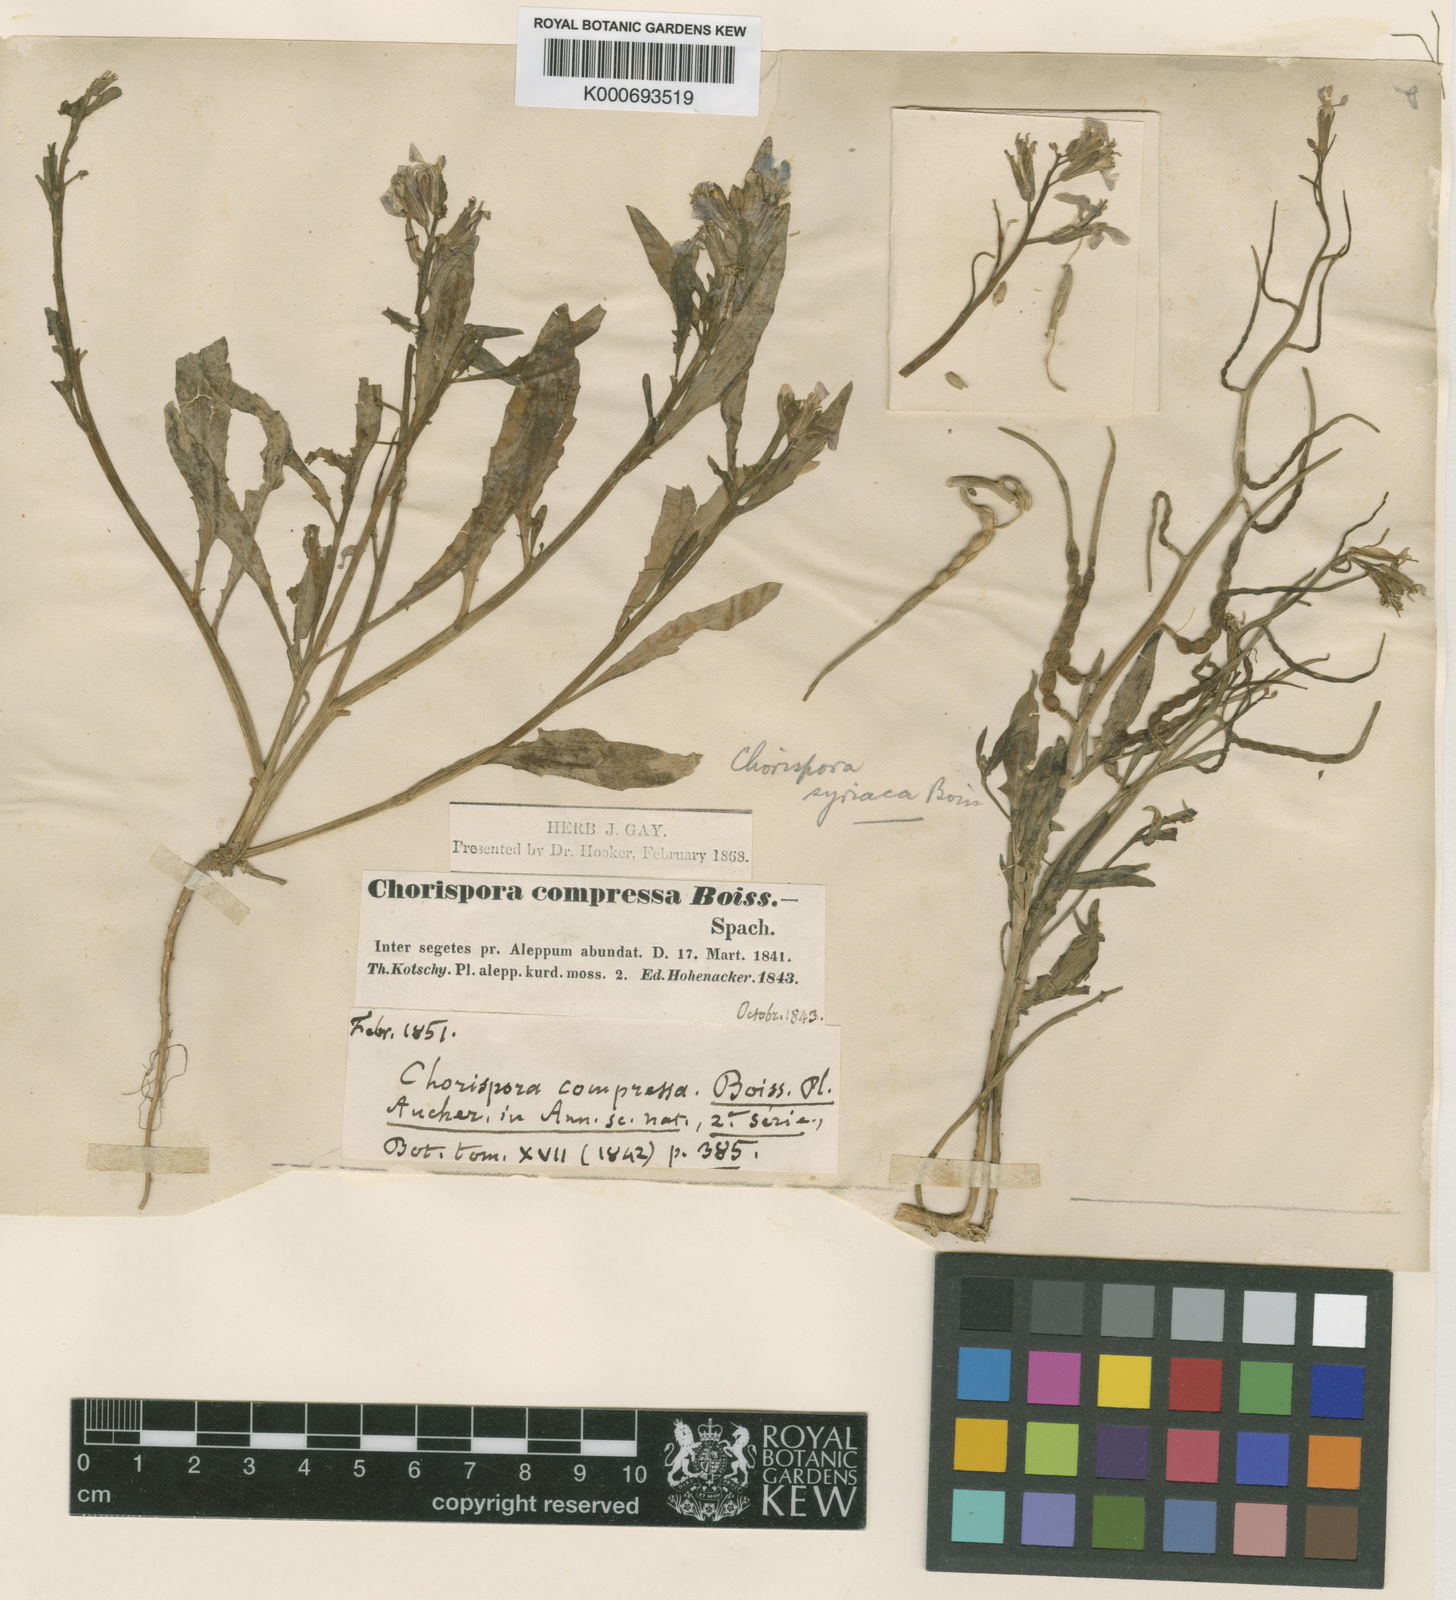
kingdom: Plantae
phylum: Tracheophyta
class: Magnoliopsida
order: Brassicales
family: Brassicaceae
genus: Chorispora
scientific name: Chorispora purpurascens
